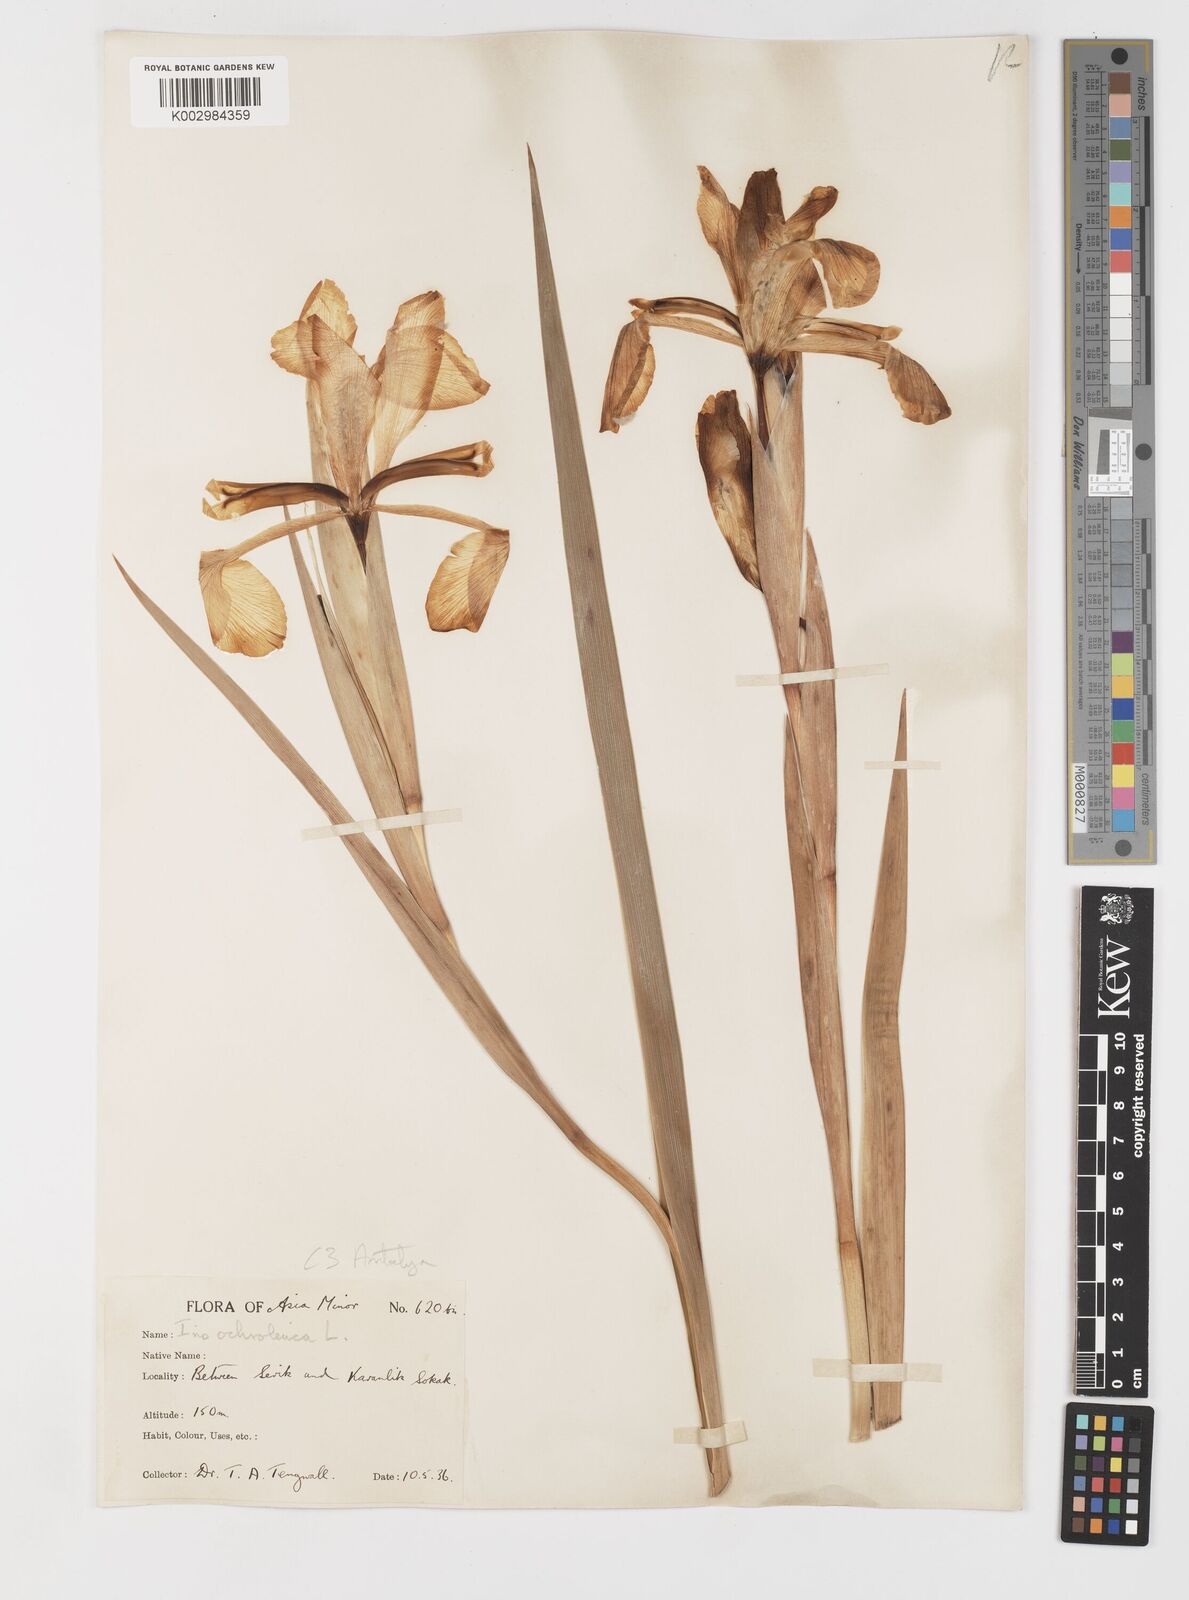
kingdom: Plantae
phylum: Tracheophyta
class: Liliopsida
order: Asparagales
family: Iridaceae
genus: Iris
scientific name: Iris orientalis
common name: Turkish iris
